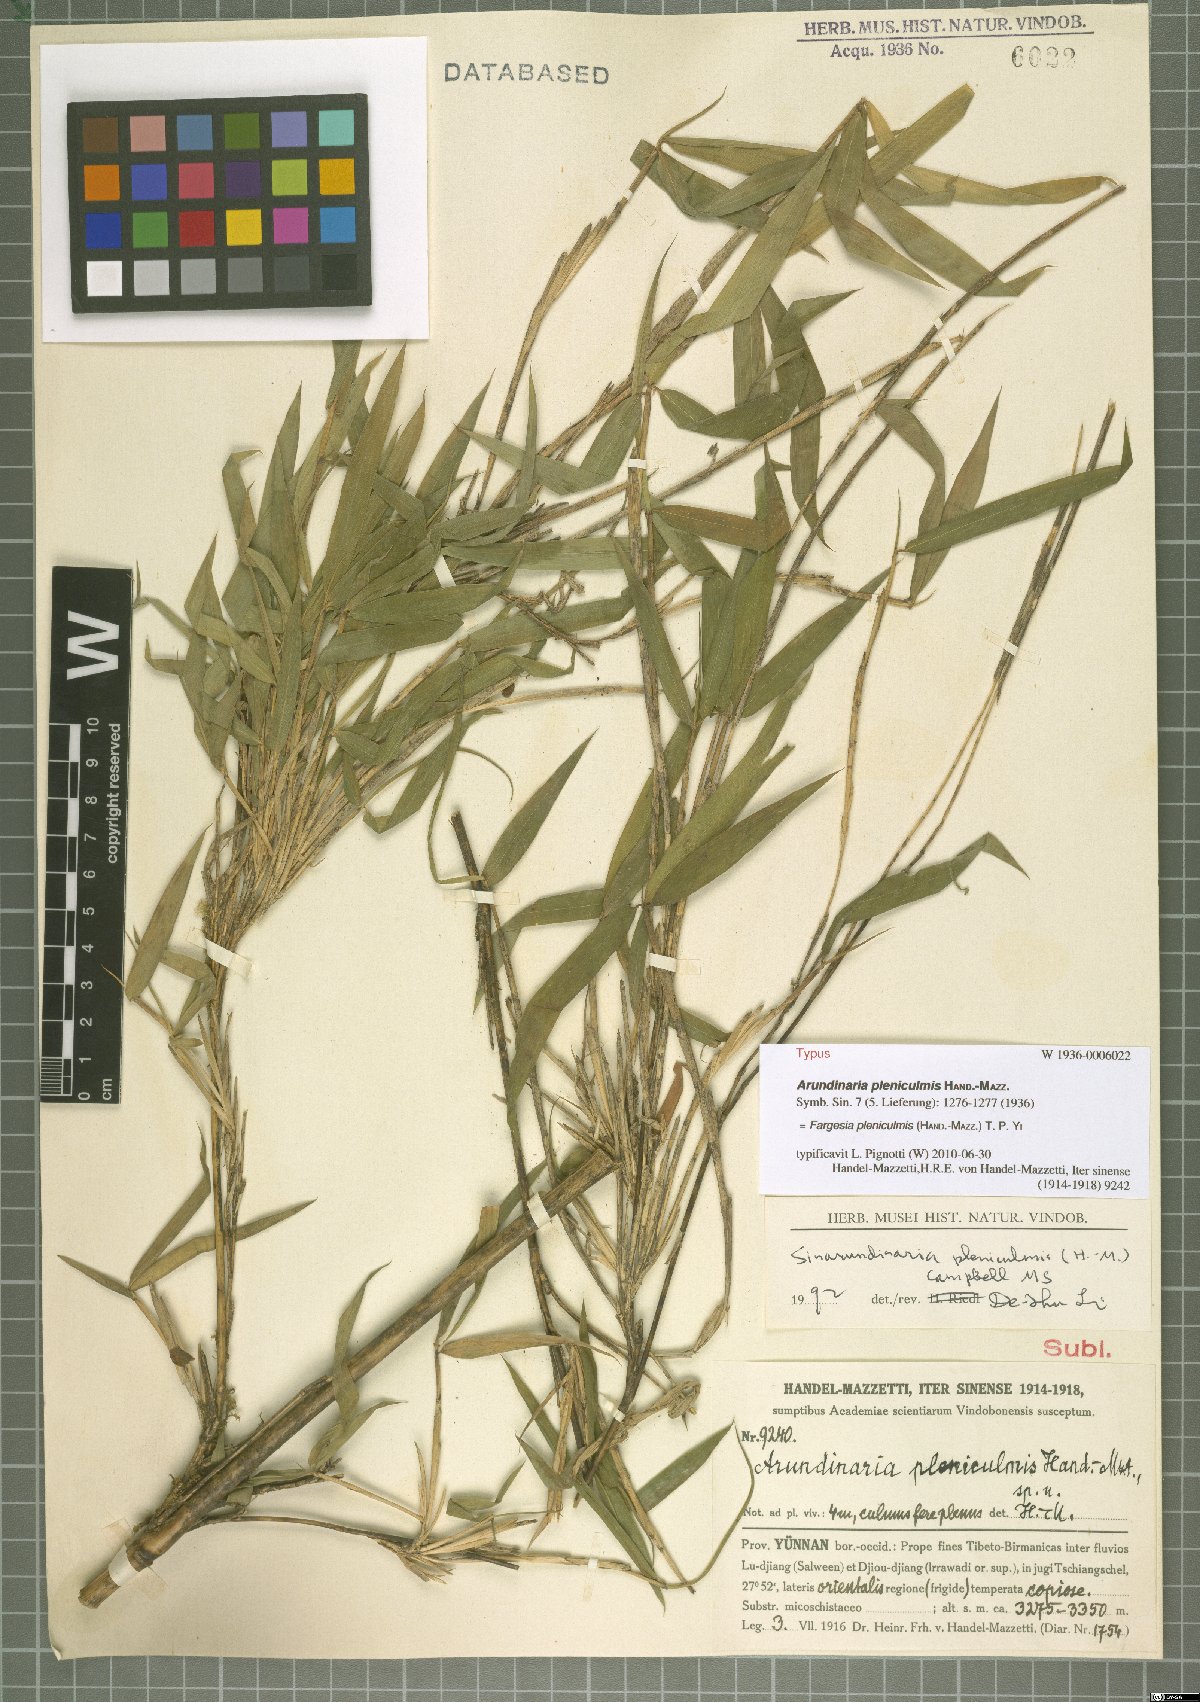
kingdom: Plantae
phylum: Tracheophyta
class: Liliopsida
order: Poales
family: Poaceae
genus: Borinda
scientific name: Borinda pleniculmis
